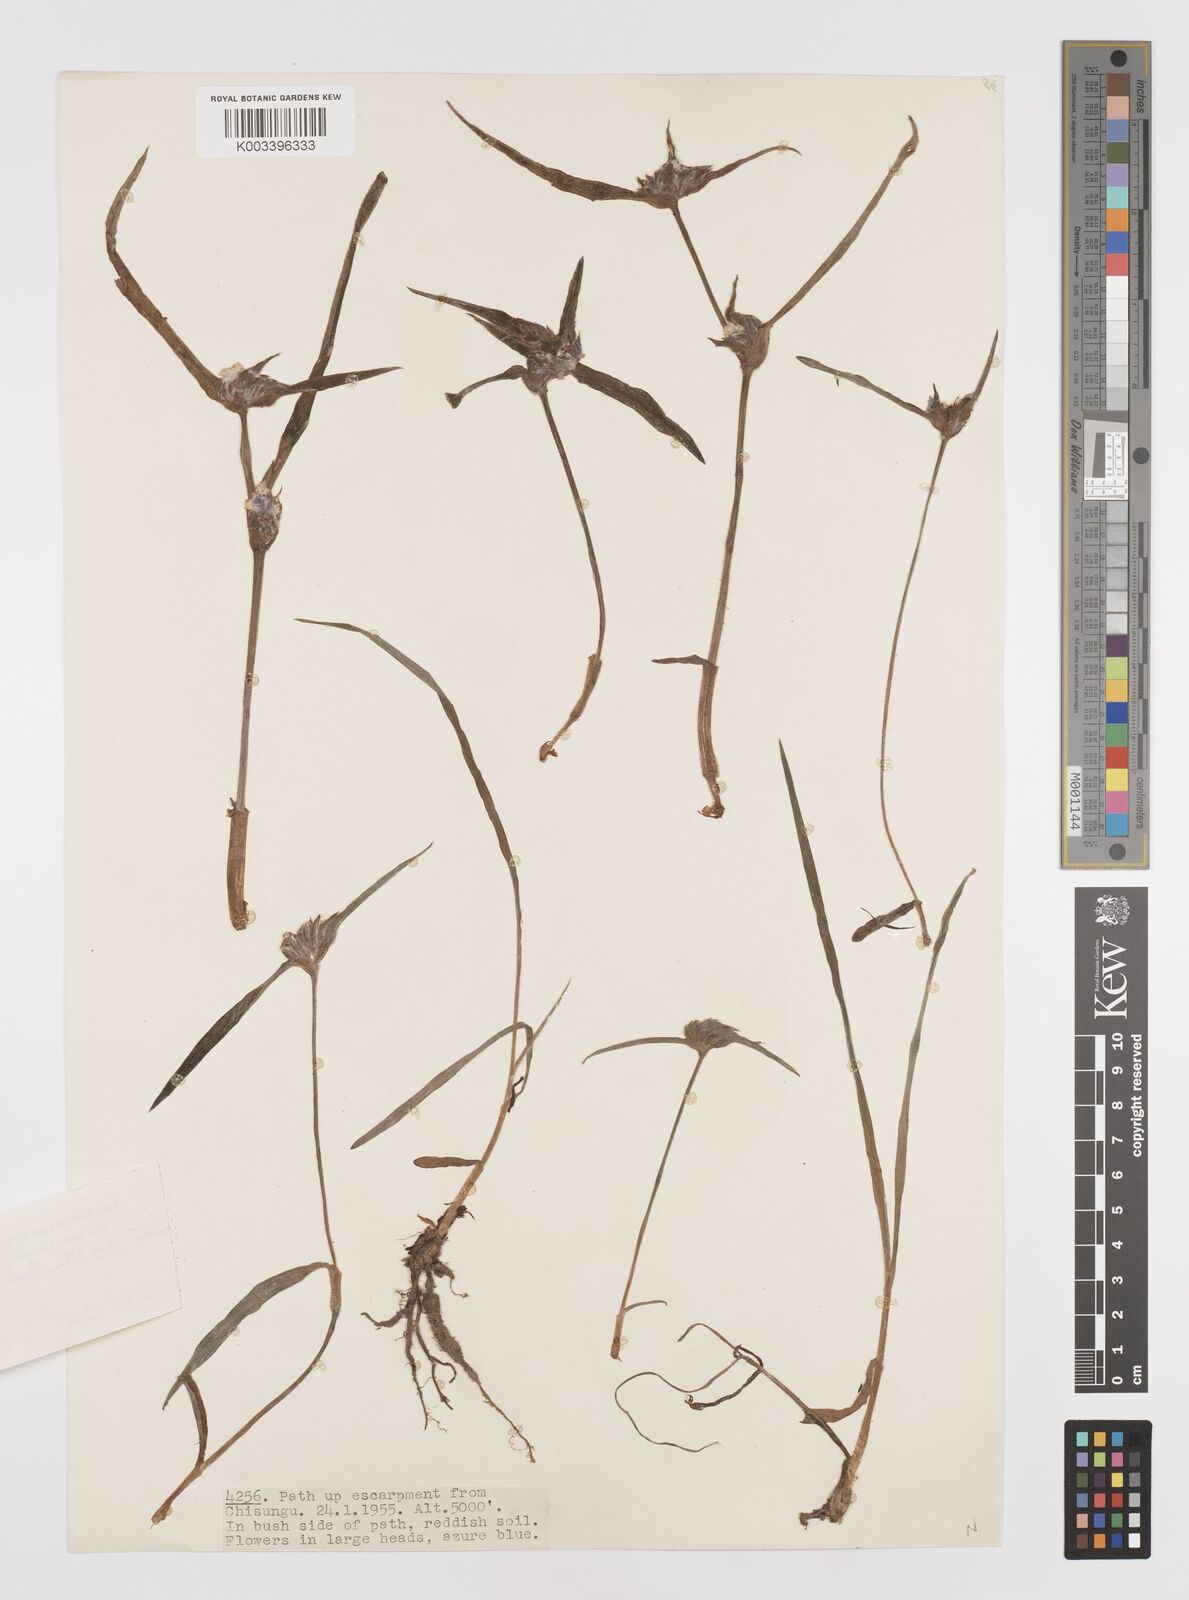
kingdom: Plantae
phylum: Tracheophyta
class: Liliopsida
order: Commelinales
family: Commelinaceae
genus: Cyanotis
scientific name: Cyanotis longifolia
